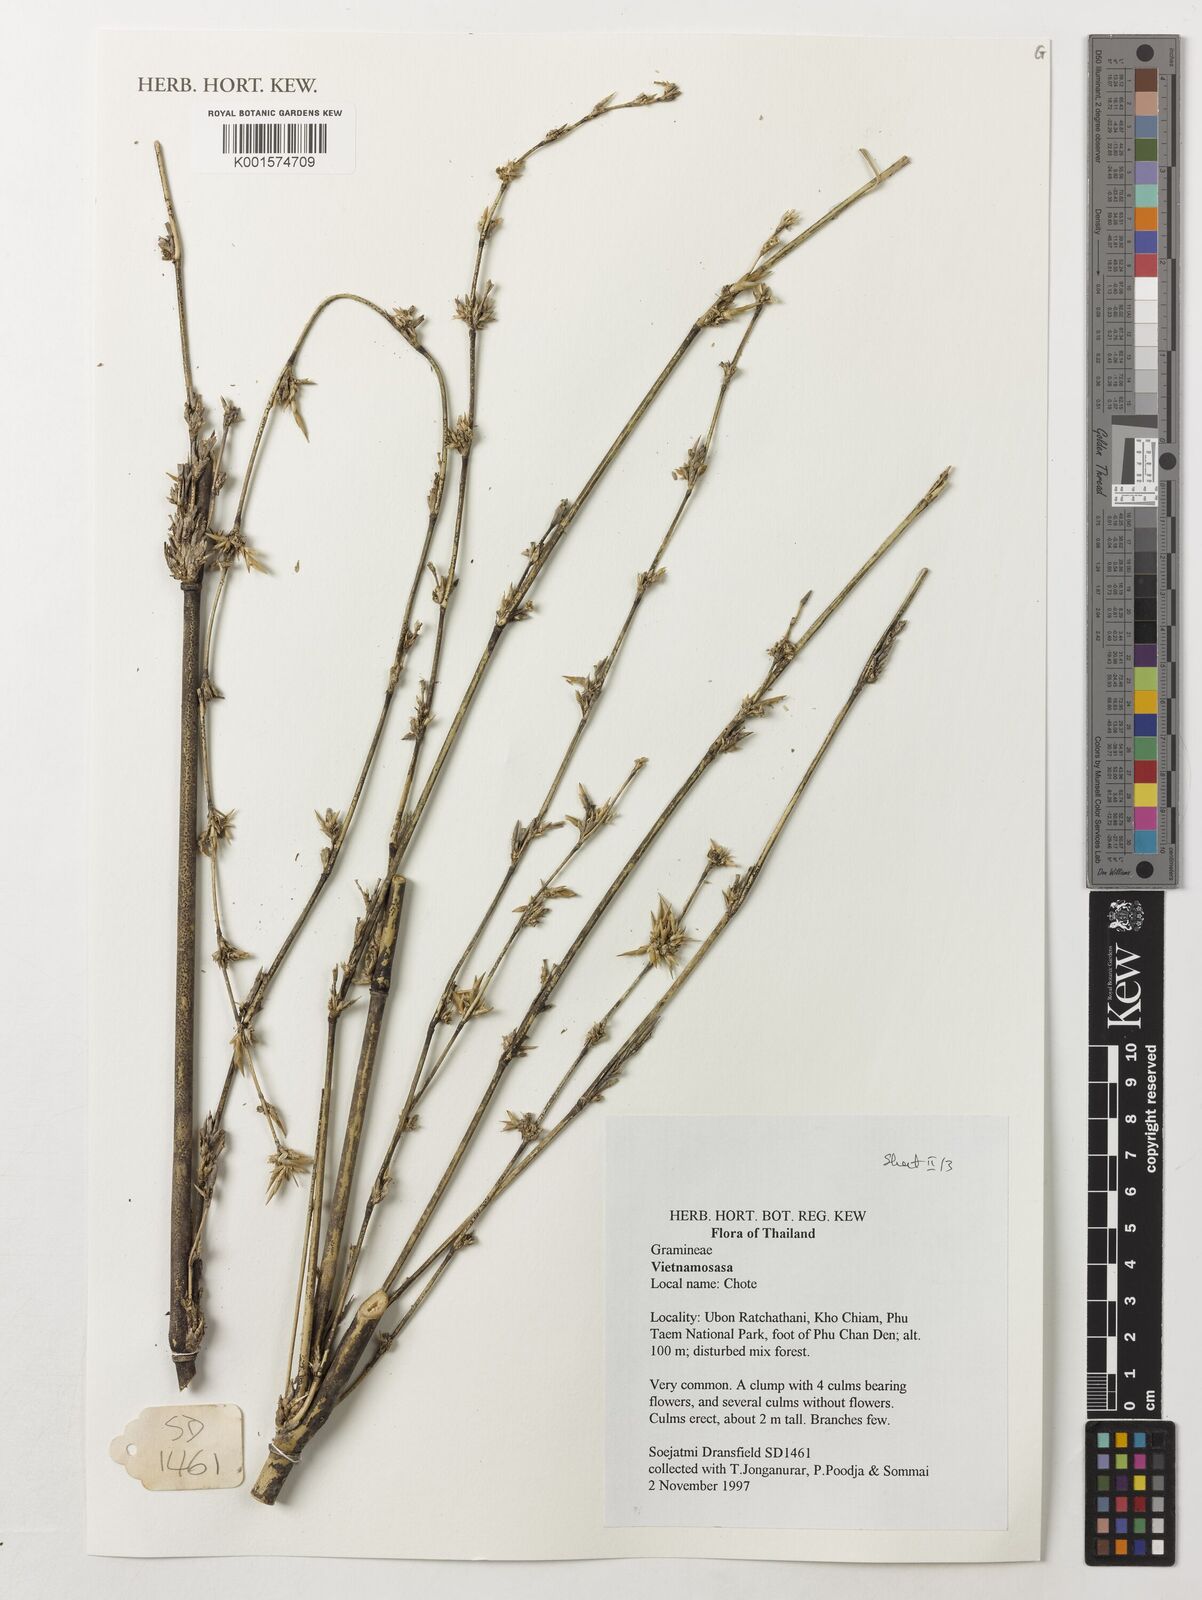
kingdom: Plantae
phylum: Tracheophyta
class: Liliopsida
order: Poales
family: Poaceae
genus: Vietnamosasa
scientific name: Vietnamosasa
